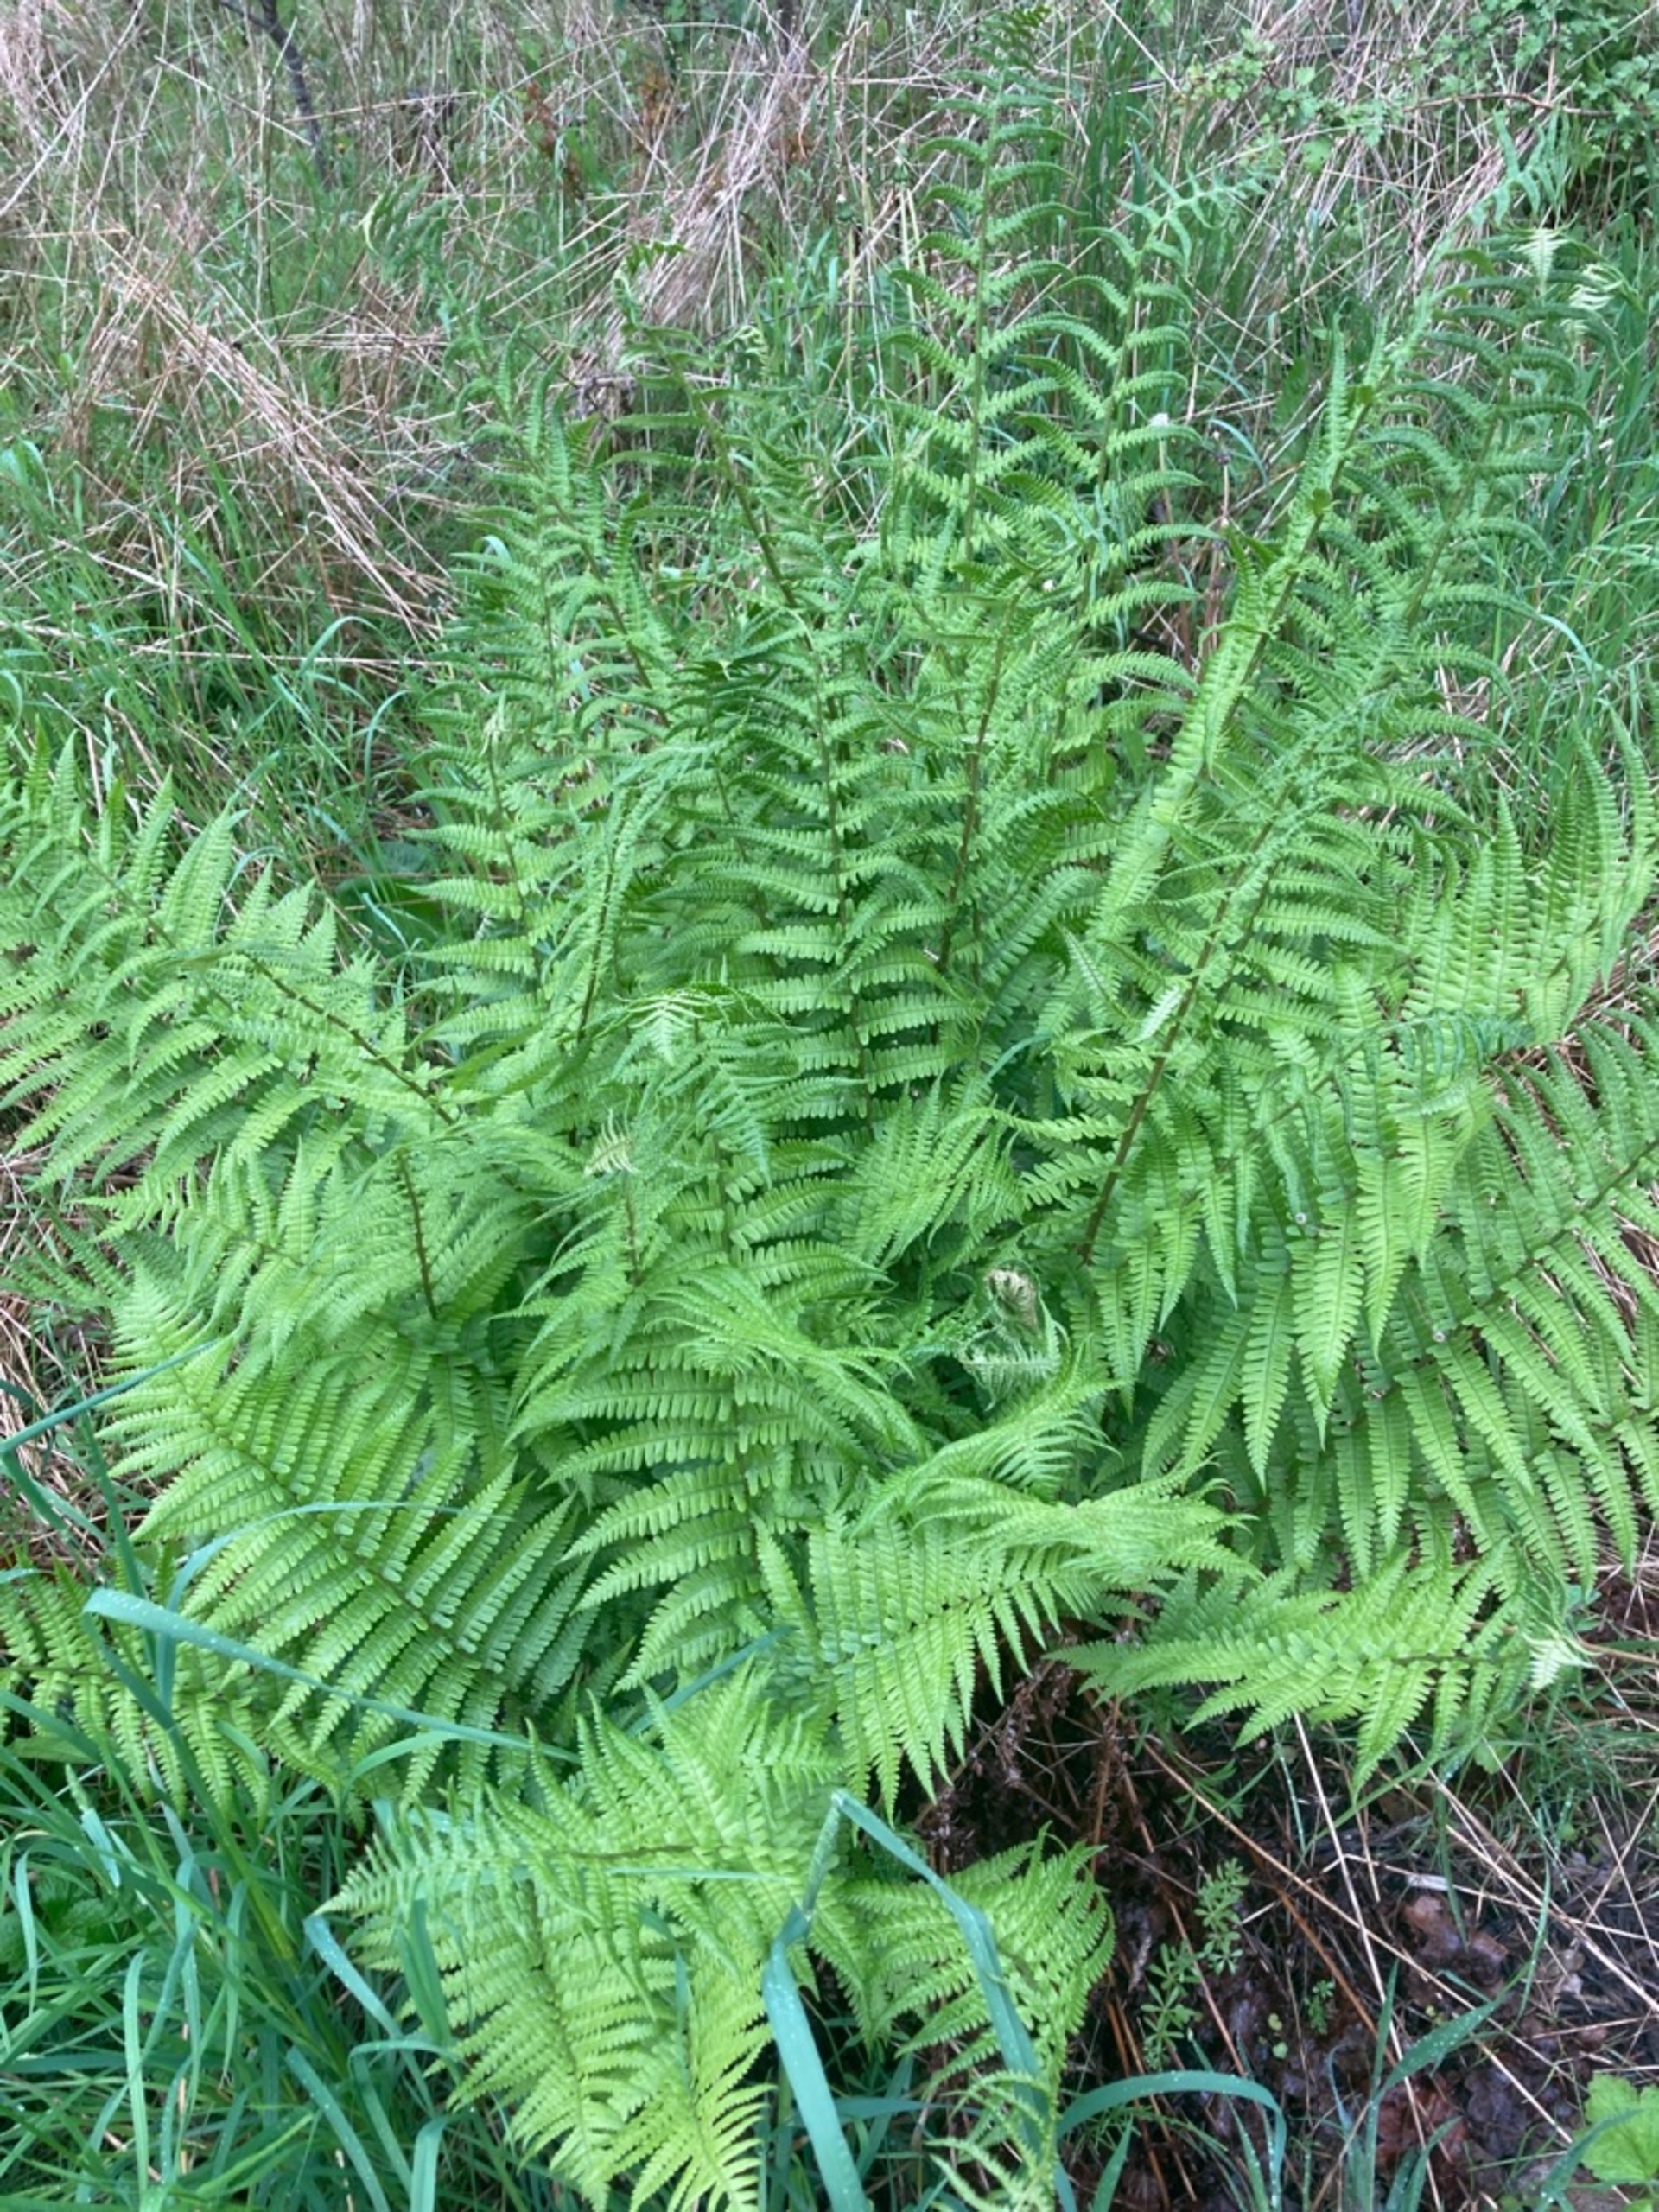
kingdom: Plantae
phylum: Tracheophyta
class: Polypodiopsida
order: Polypodiales
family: Dryopteridaceae
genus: Dryopteris
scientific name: Dryopteris filix-mas
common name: Almindelig mangeløv
